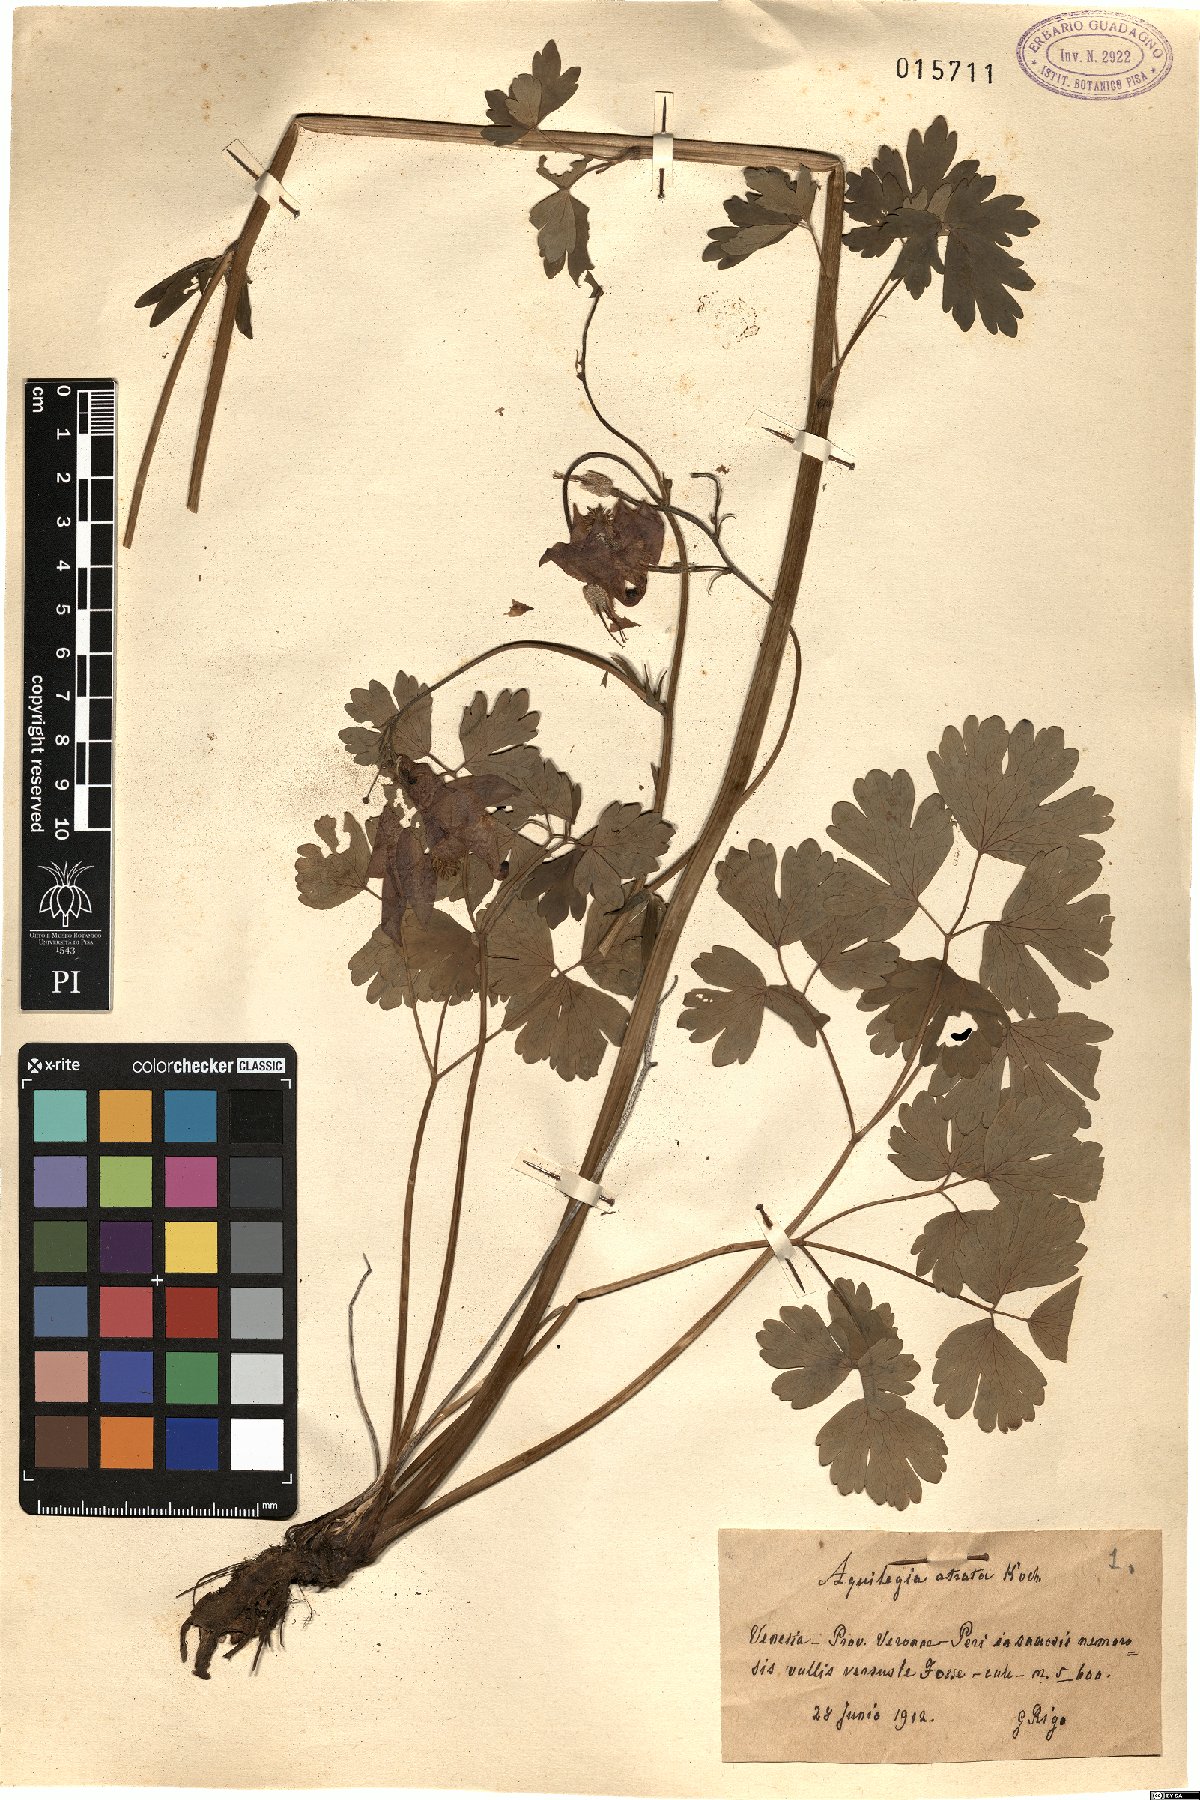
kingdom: Plantae
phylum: Tracheophyta
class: Magnoliopsida
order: Ranunculales
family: Ranunculaceae
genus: Aquilegia
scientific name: Aquilegia atrata
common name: Dark columbine
